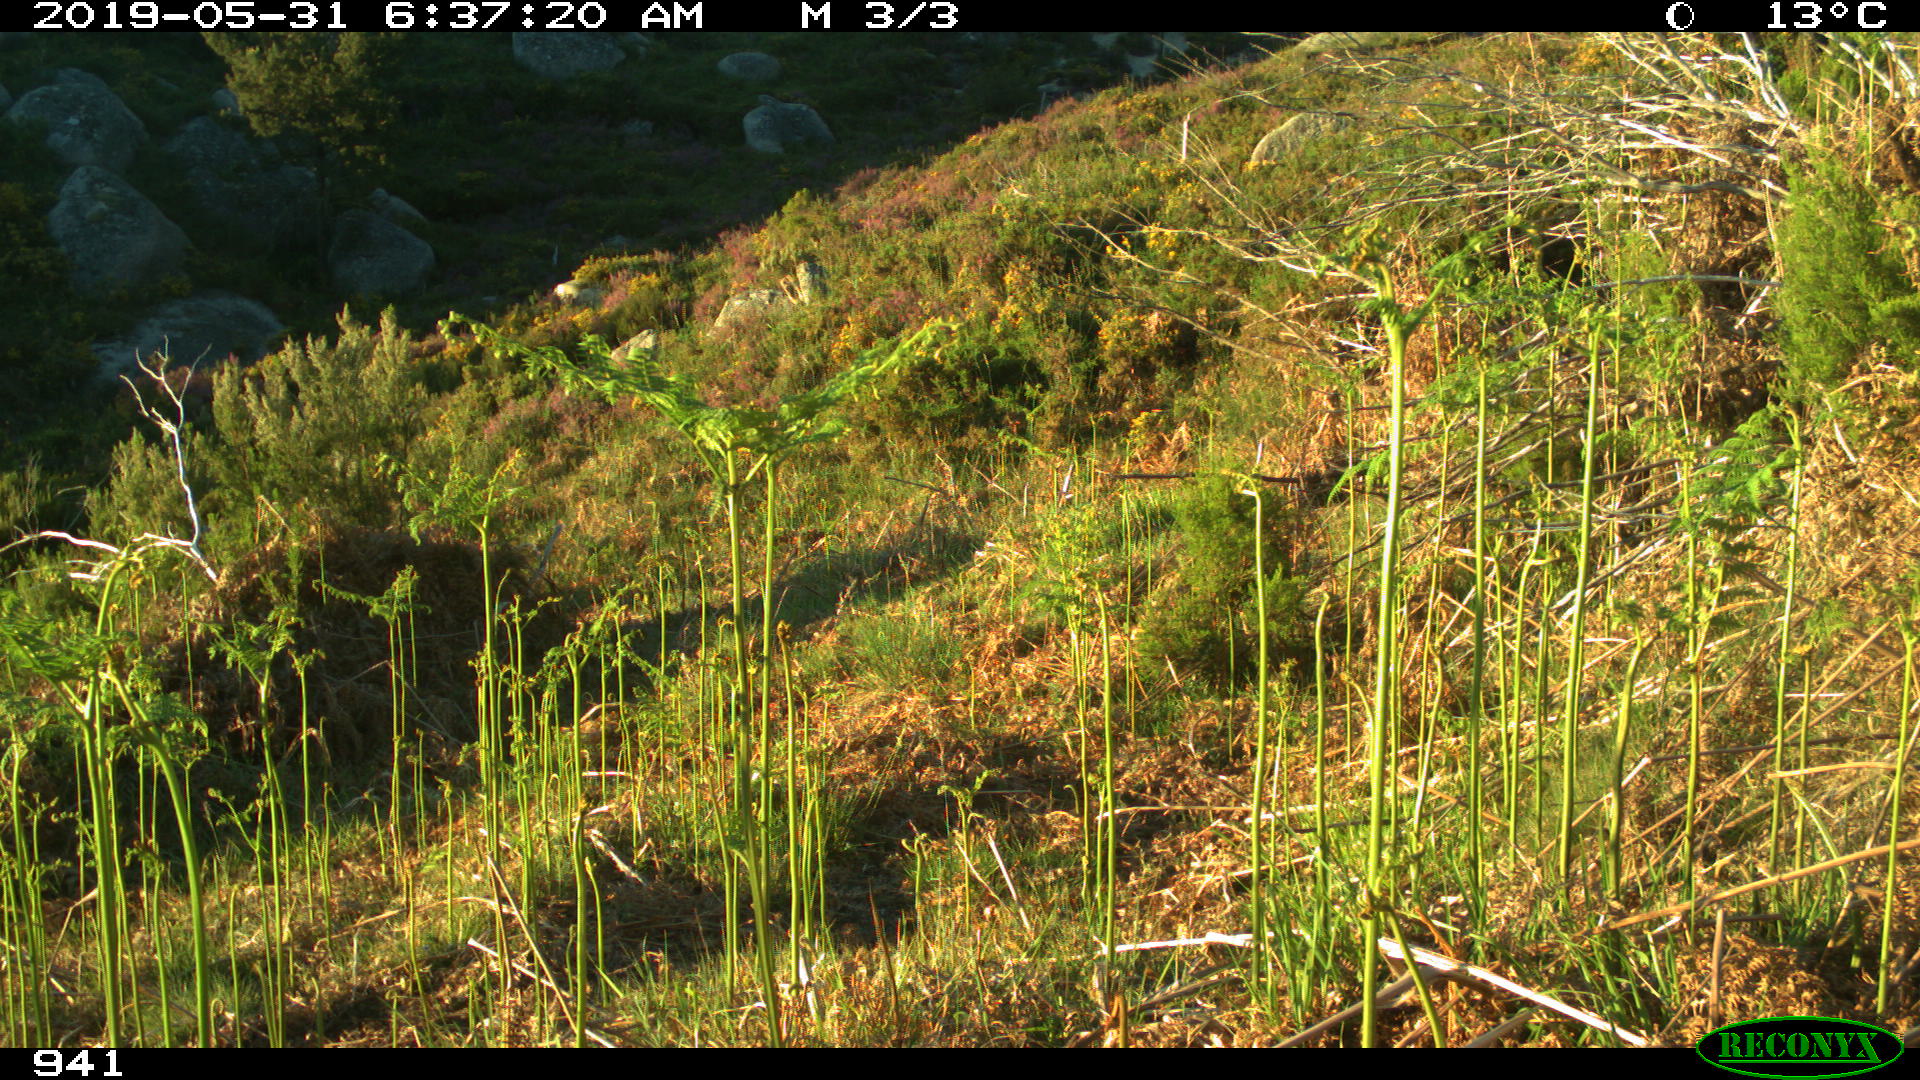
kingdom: Animalia
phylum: Chordata
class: Mammalia
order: Artiodactyla
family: Cervidae
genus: Capreolus
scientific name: Capreolus capreolus
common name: Western roe deer
